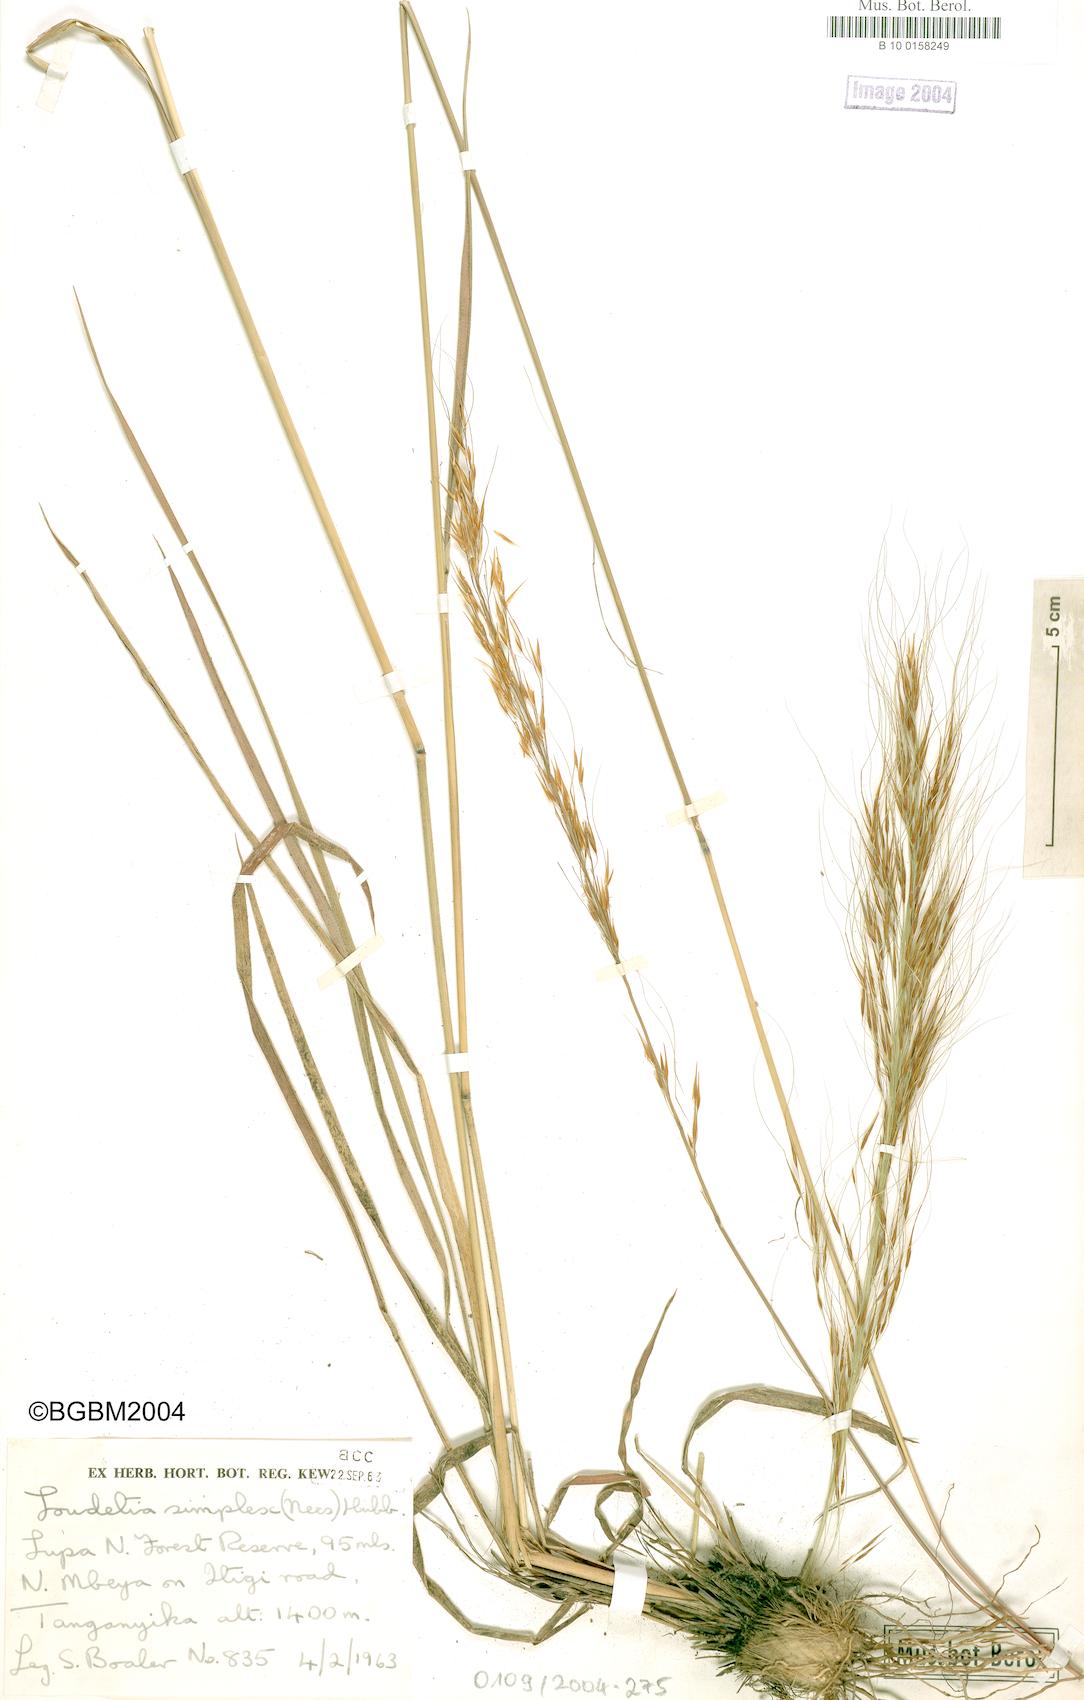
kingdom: Plantae
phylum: Tracheophyta
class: Liliopsida
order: Poales
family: Poaceae
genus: Loudetia
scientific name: Loudetia simplex
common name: Common russet grass
